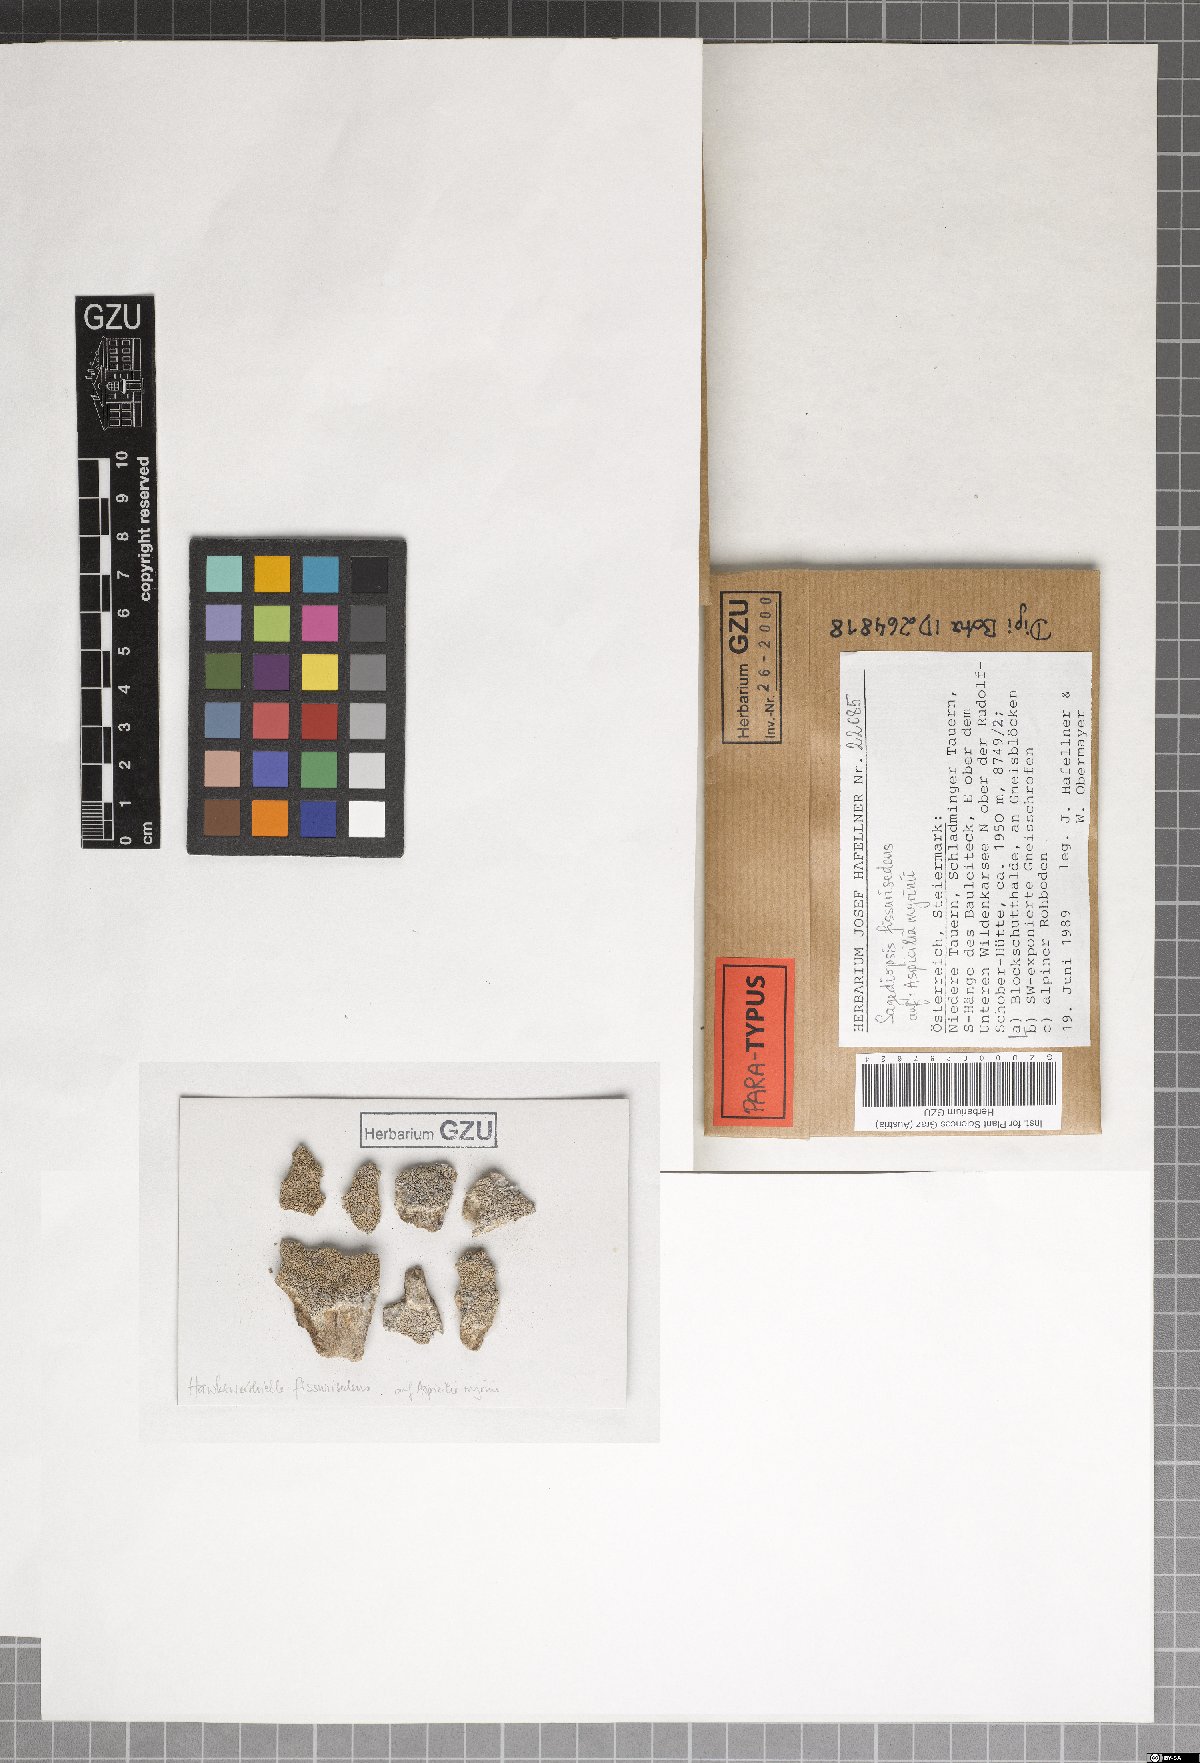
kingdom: Fungi
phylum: Ascomycota
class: Eurotiomycetes
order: Verrucariales
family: Adelococcaceae
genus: Sagediopsis
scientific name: Sagediopsis fissurisedens
